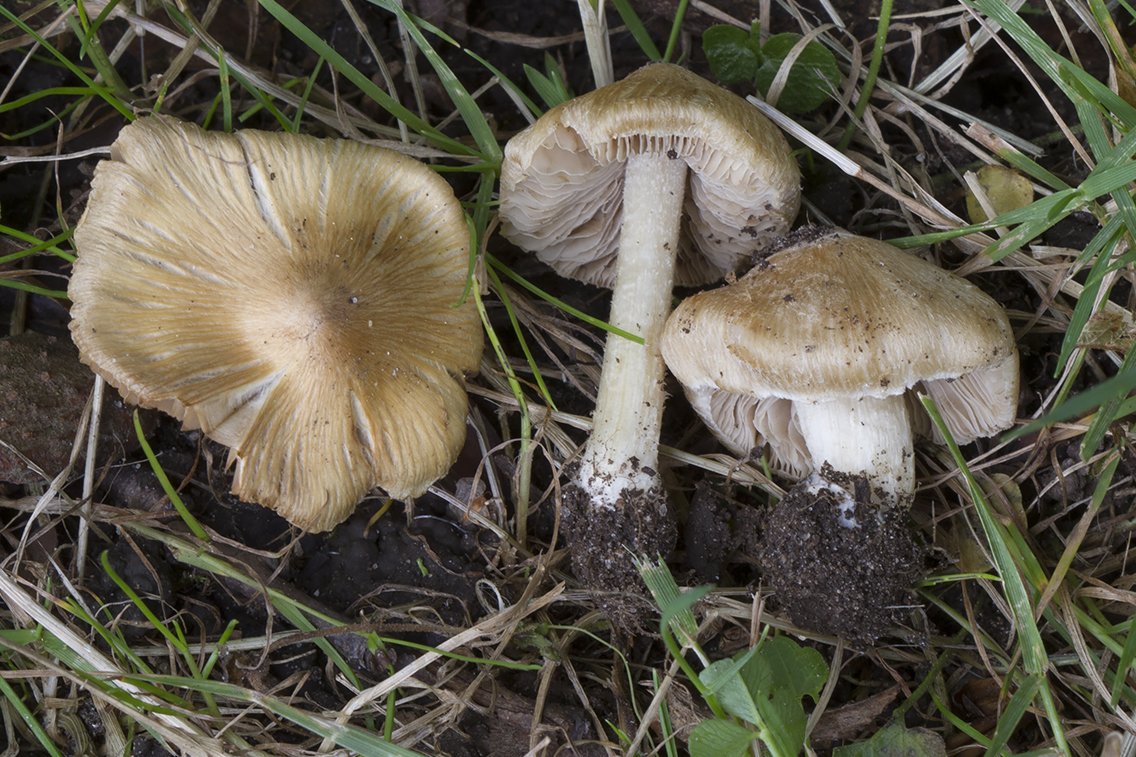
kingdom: Fungi
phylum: Basidiomycota
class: Agaricomycetes
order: Agaricales
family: Inocybaceae
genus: Pseudosperma
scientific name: Pseudosperma rimosum
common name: gulbladet trævlhat
